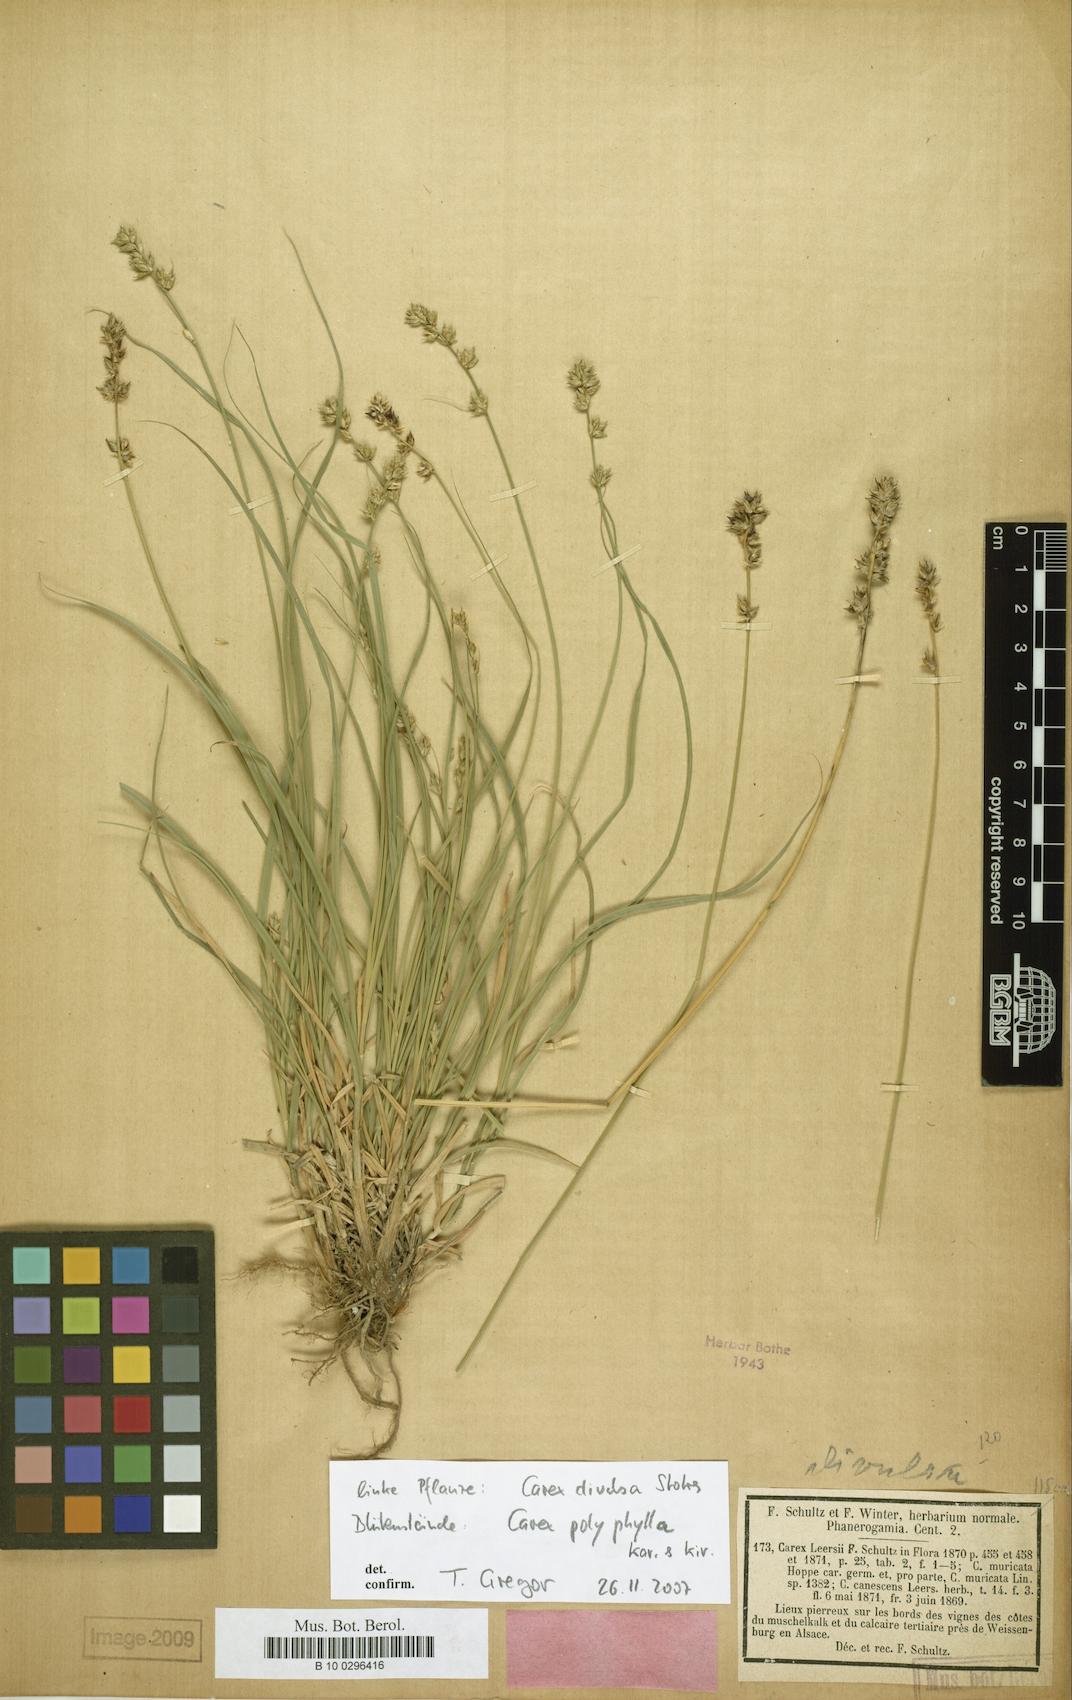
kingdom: Plantae
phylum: Tracheophyta
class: Liliopsida
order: Poales
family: Cyperaceae
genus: Carex
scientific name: Carex polyphylla
